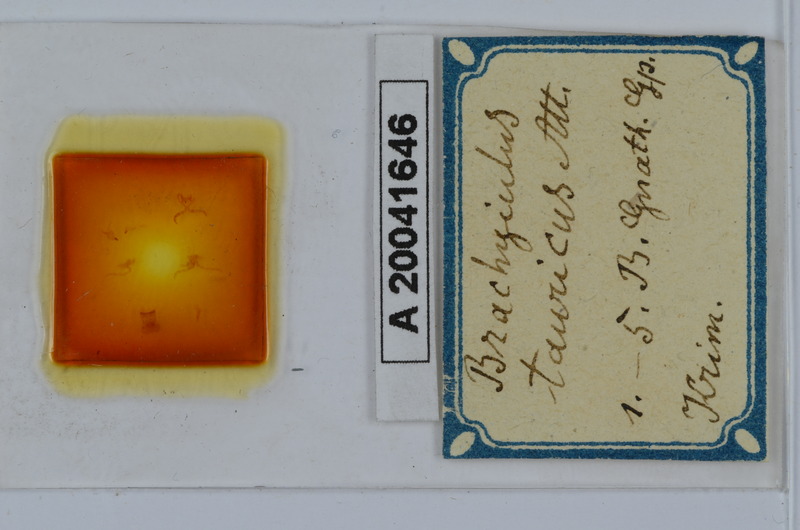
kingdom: Animalia
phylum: Arthropoda
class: Diplopoda
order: Julida
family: Julidae
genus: Megaphyllum
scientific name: Megaphyllum tauricum
